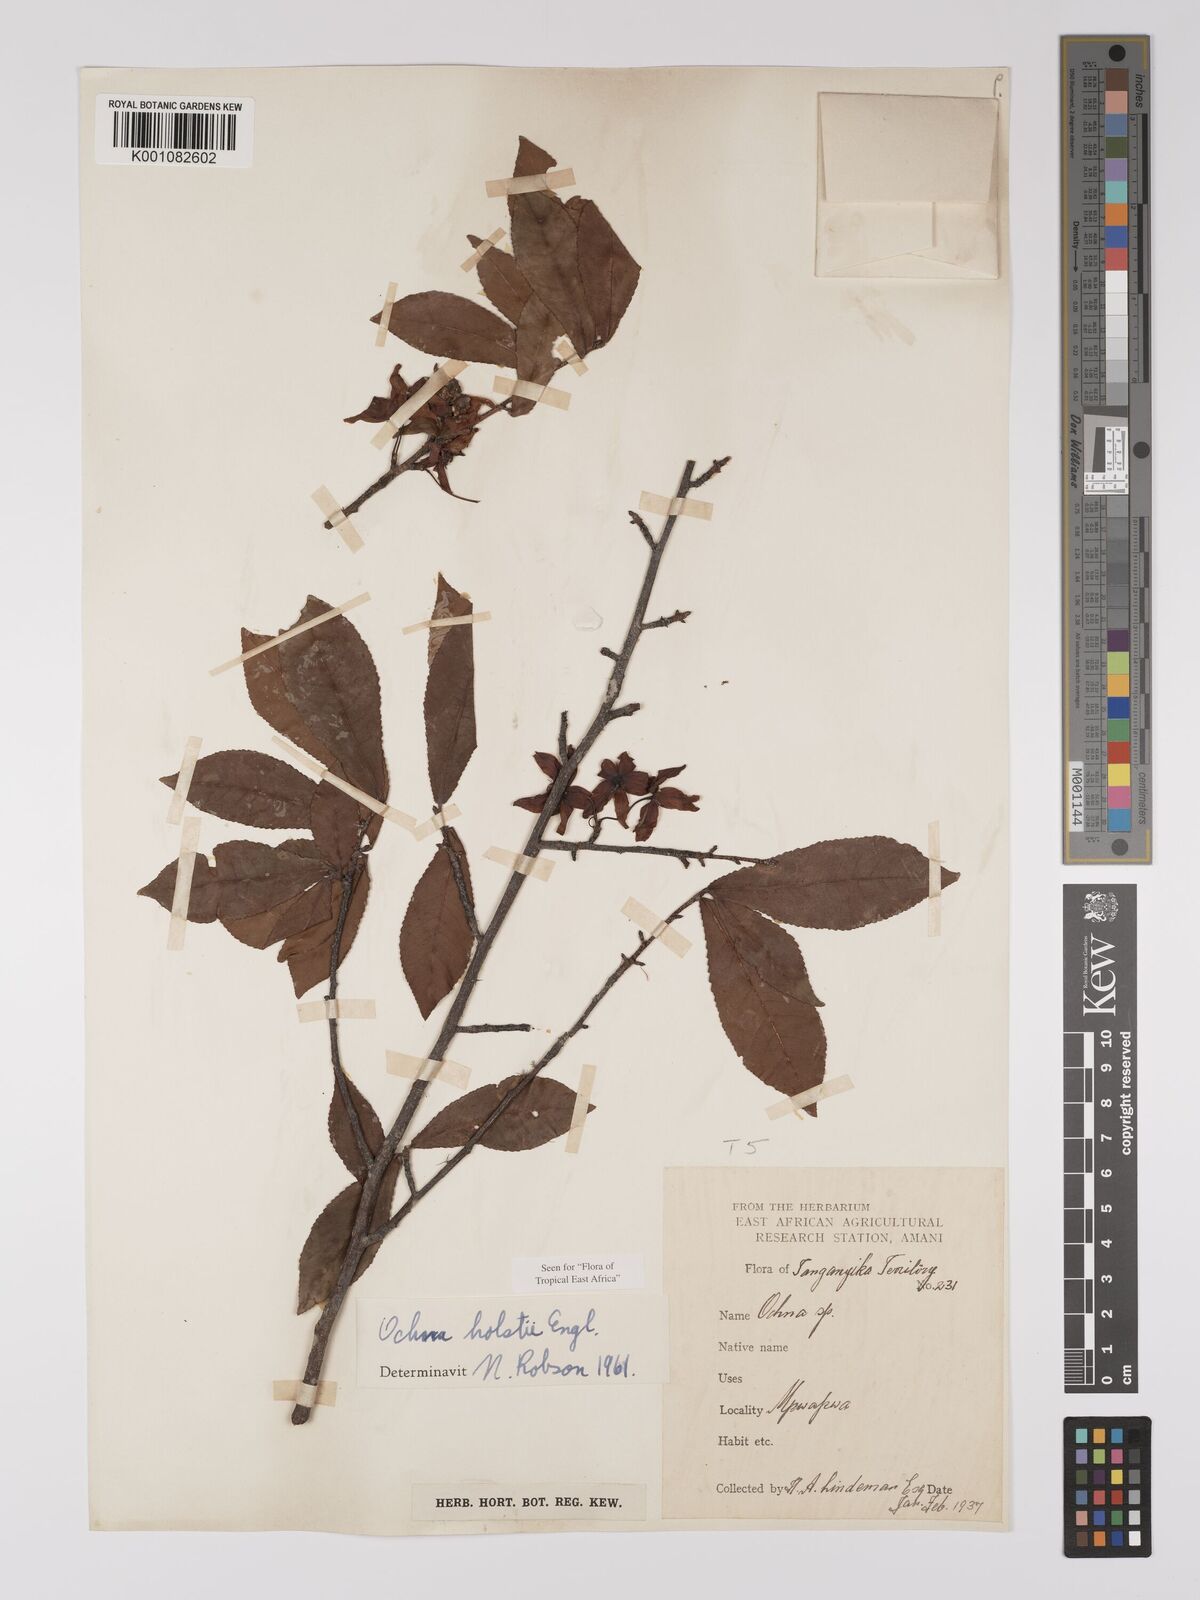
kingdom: Plantae
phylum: Tracheophyta
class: Magnoliopsida
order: Malpighiales
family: Ochnaceae
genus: Ochna
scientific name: Ochna holstii
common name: Red ironwood
